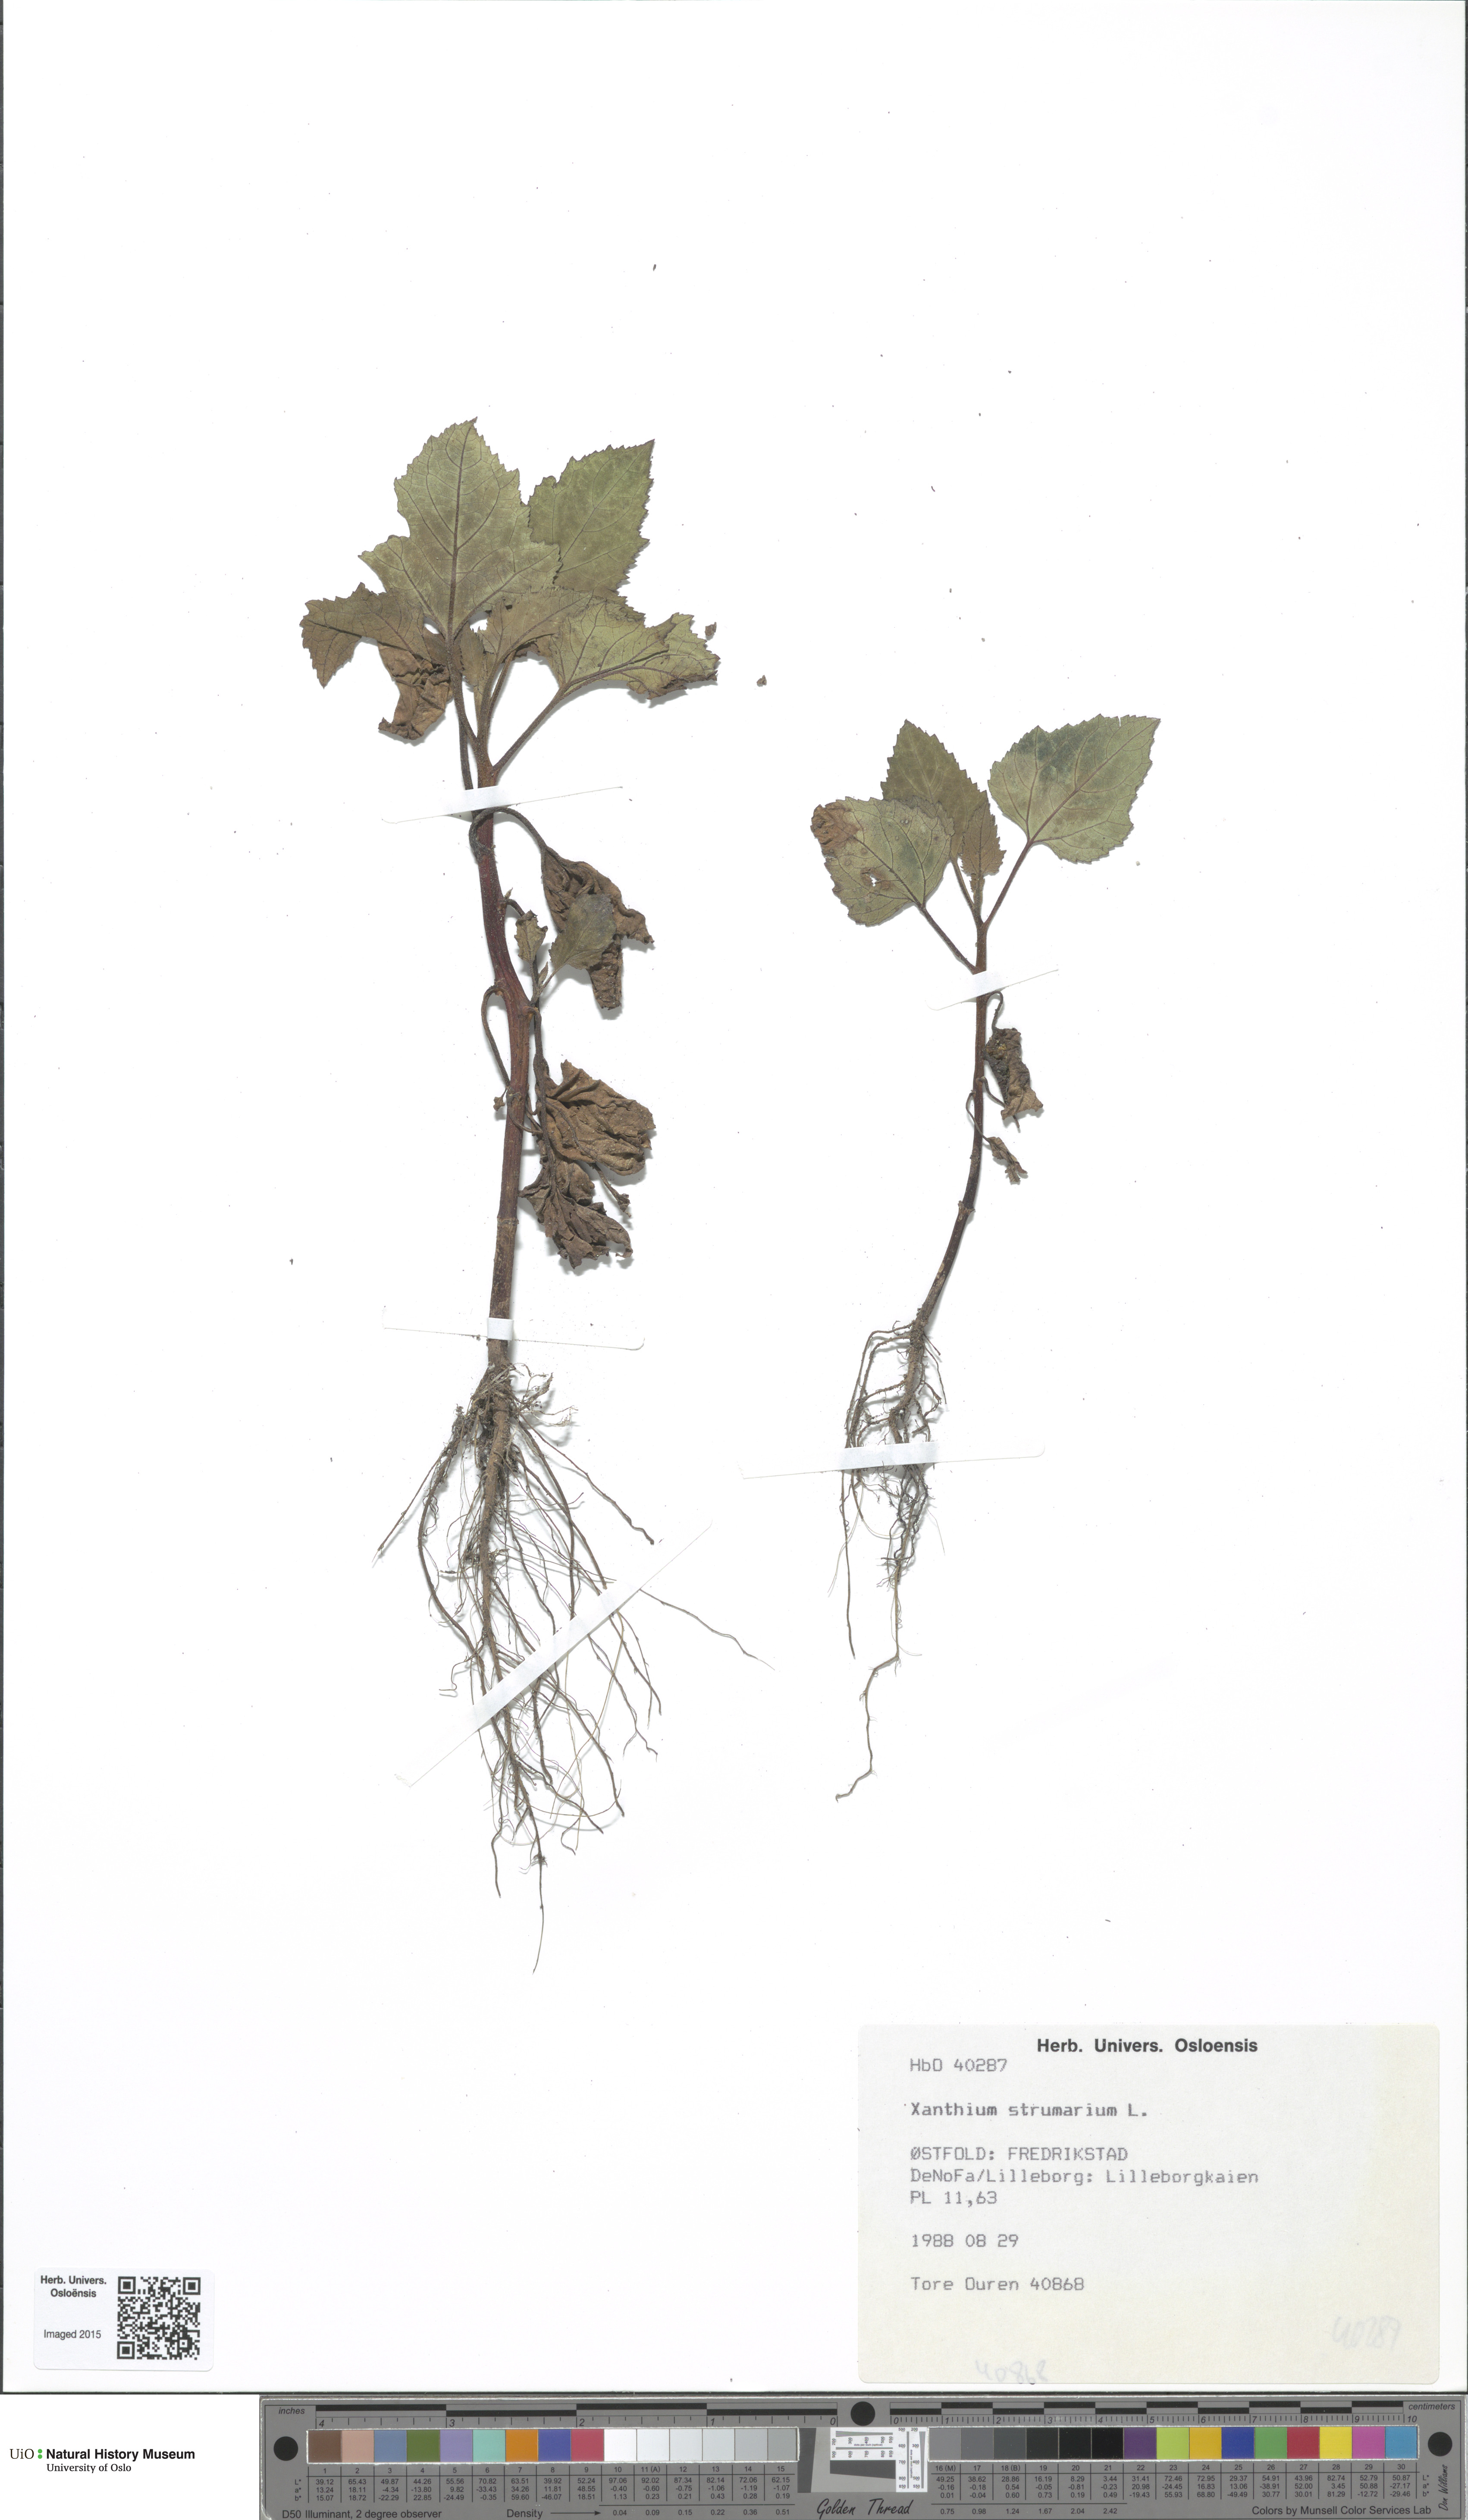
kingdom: Plantae
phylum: Tracheophyta
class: Magnoliopsida
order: Asterales
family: Asteraceae
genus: Xanthium
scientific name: Xanthium orientale
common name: Californian burr
